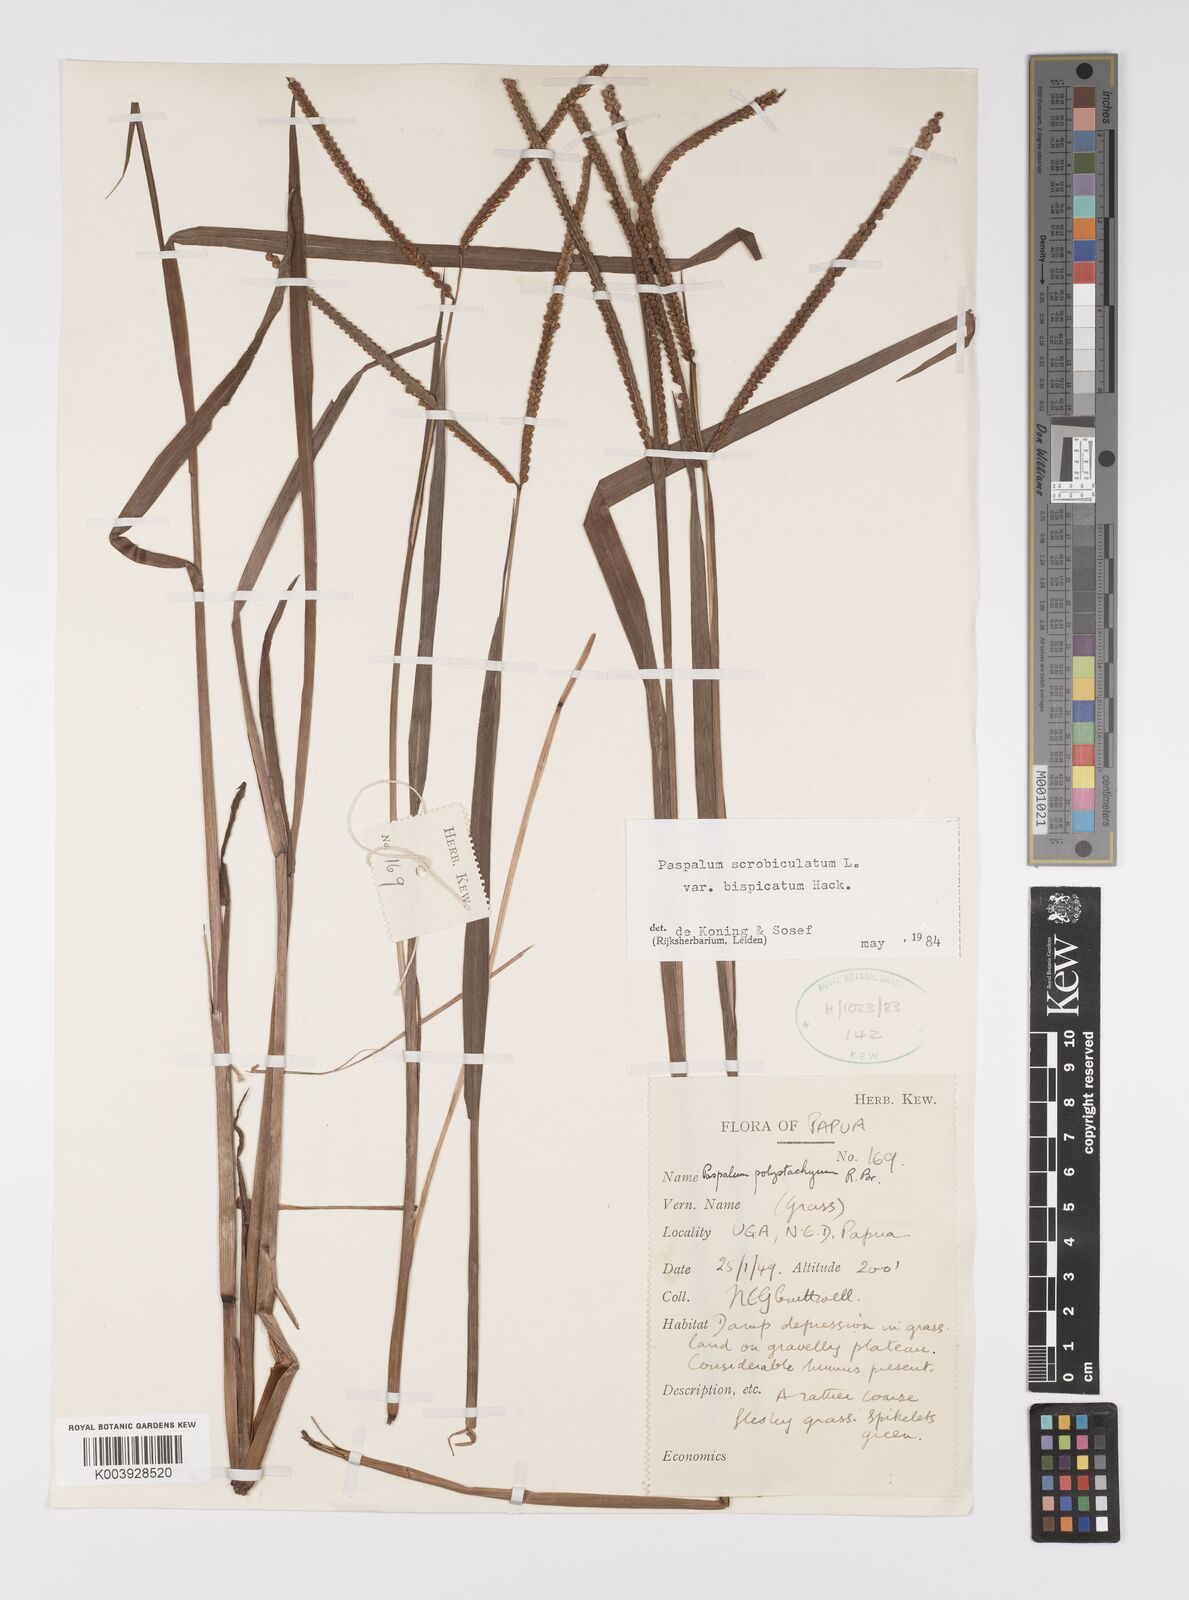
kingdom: Plantae
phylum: Tracheophyta
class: Liliopsida
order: Poales
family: Poaceae
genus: Paspalum
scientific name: Paspalum scrobiculatum
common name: Kodo millet
